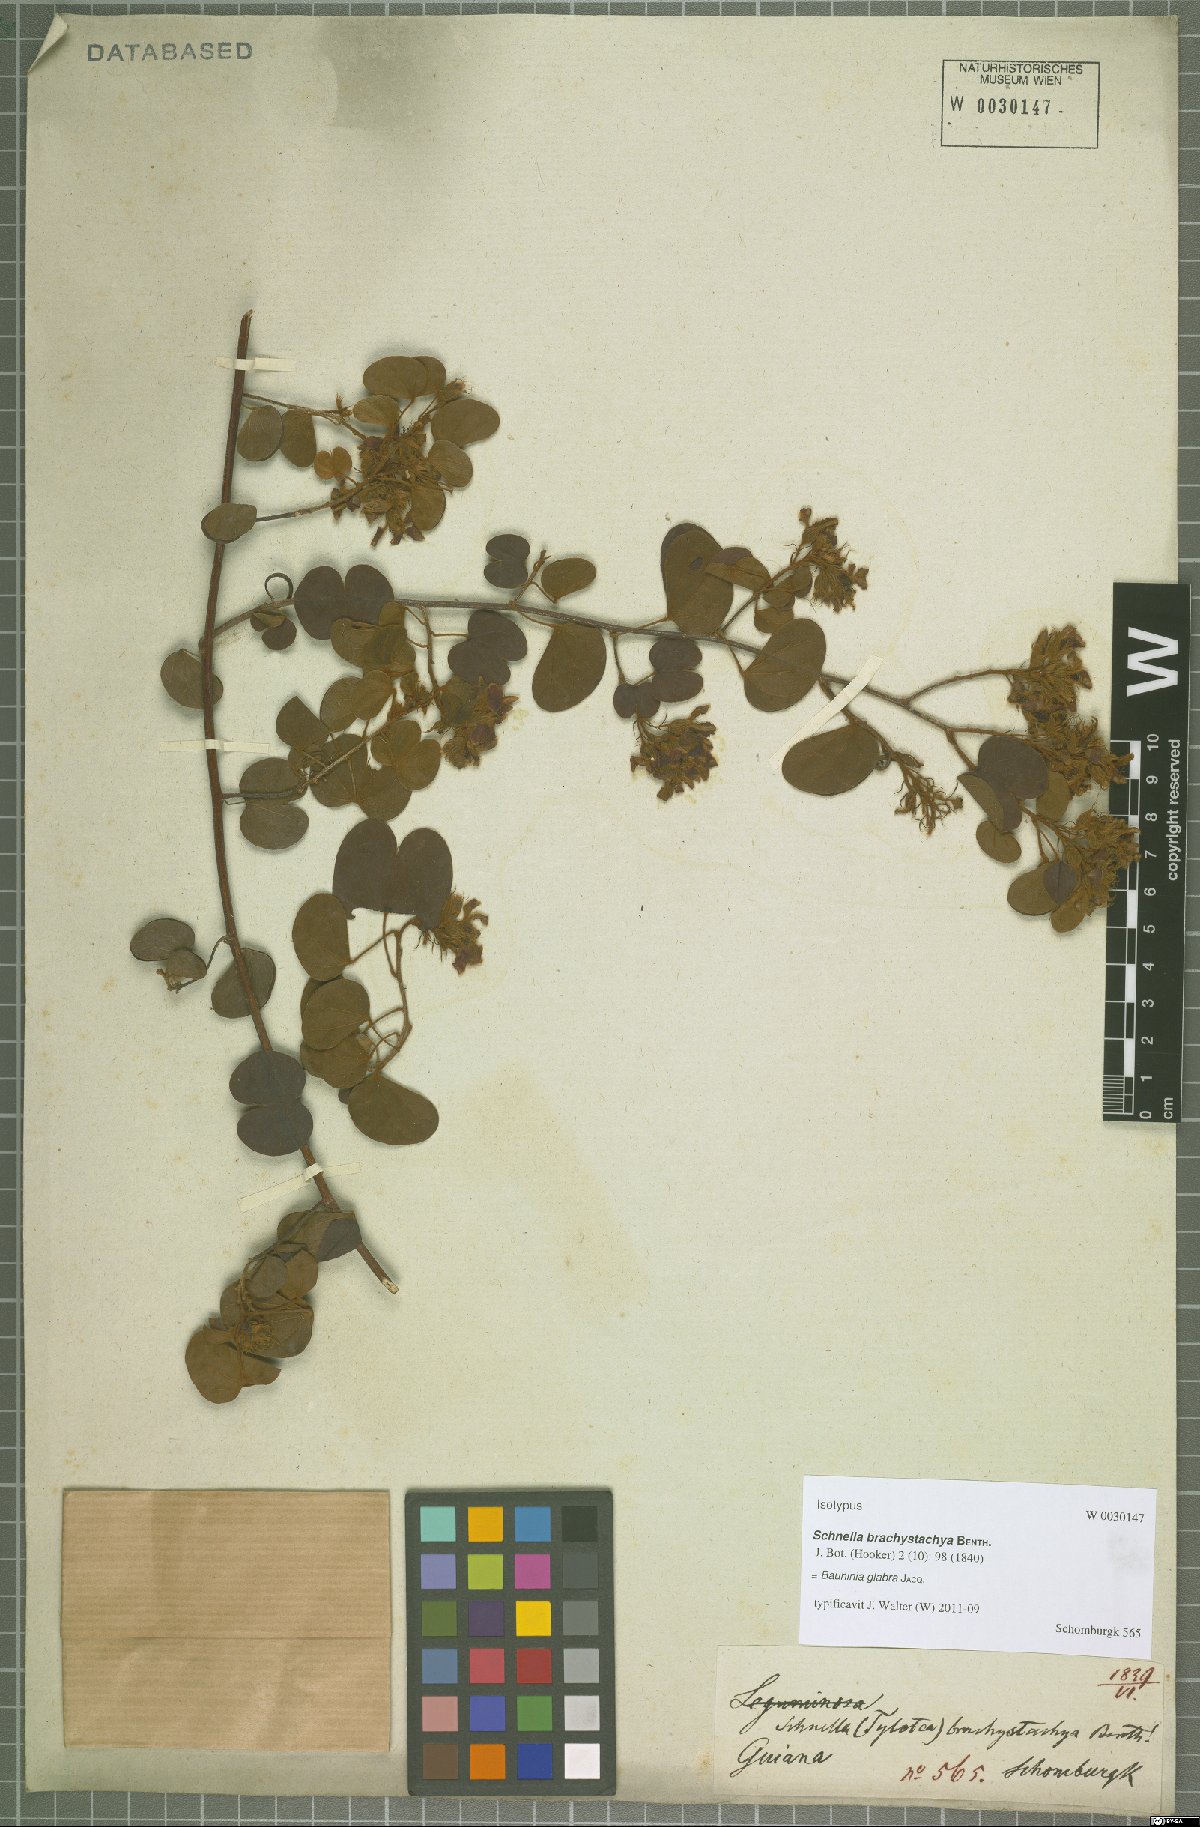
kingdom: Plantae
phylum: Tracheophyta
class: Magnoliopsida
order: Fabales
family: Fabaceae
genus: Schnella
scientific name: Schnella glabra
